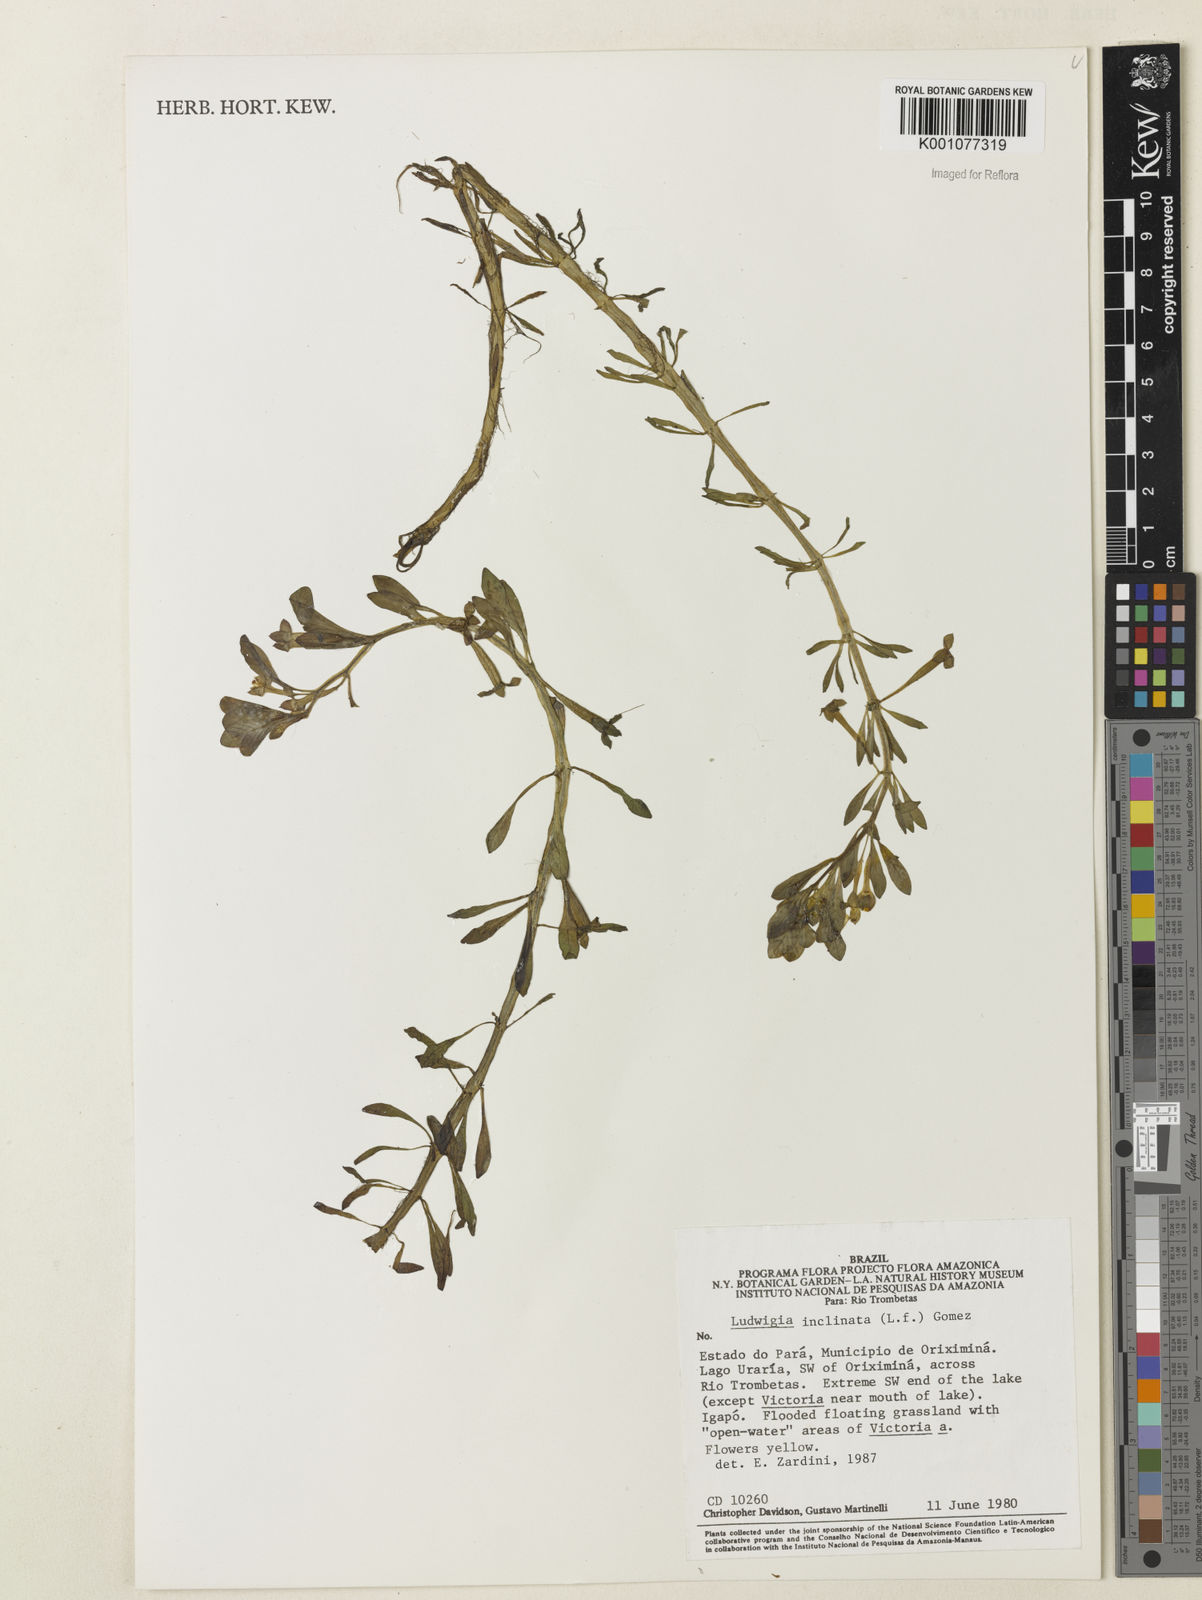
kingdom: Plantae
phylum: Tracheophyta
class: Magnoliopsida
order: Myrtales
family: Onagraceae
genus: Ludwigia
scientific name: Ludwigia
